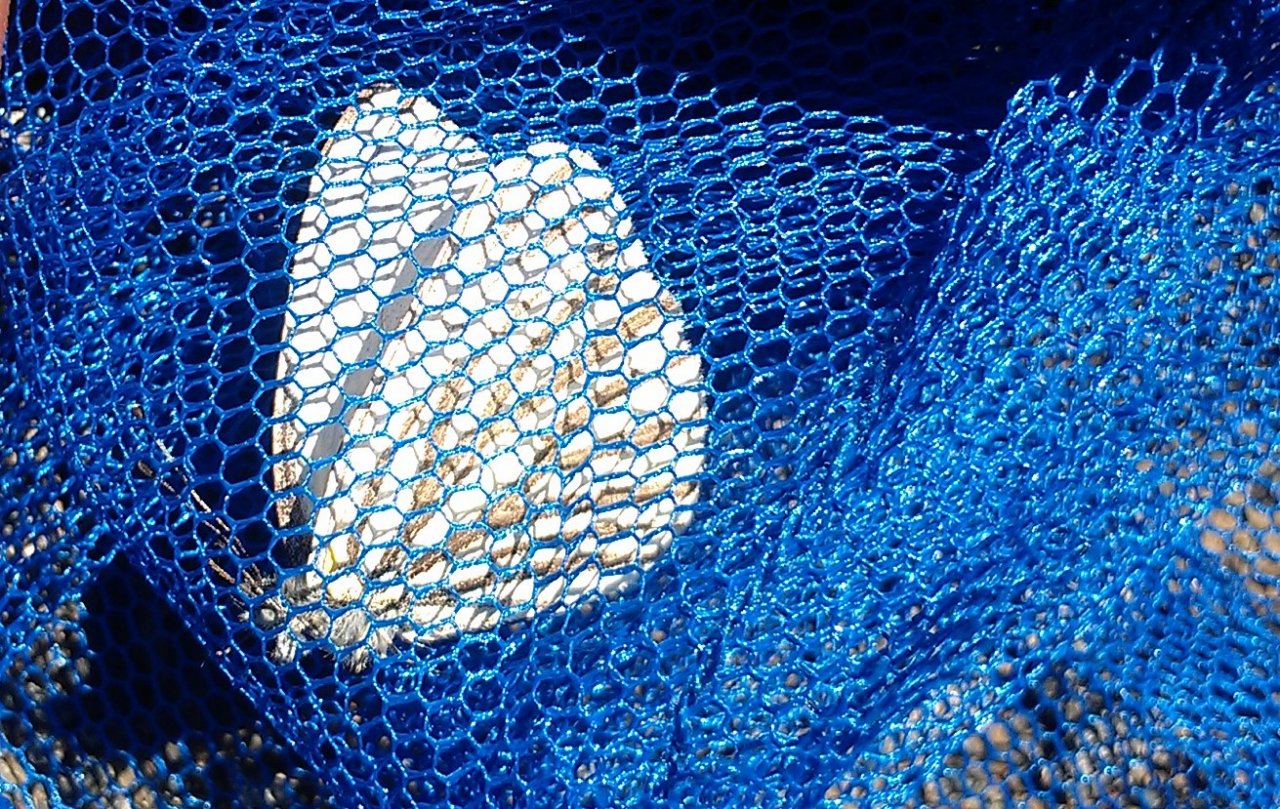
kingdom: Animalia
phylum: Arthropoda
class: Insecta
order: Lepidoptera
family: Pieridae
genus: Pieris
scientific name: Pieris oleracea
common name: Mustard White
